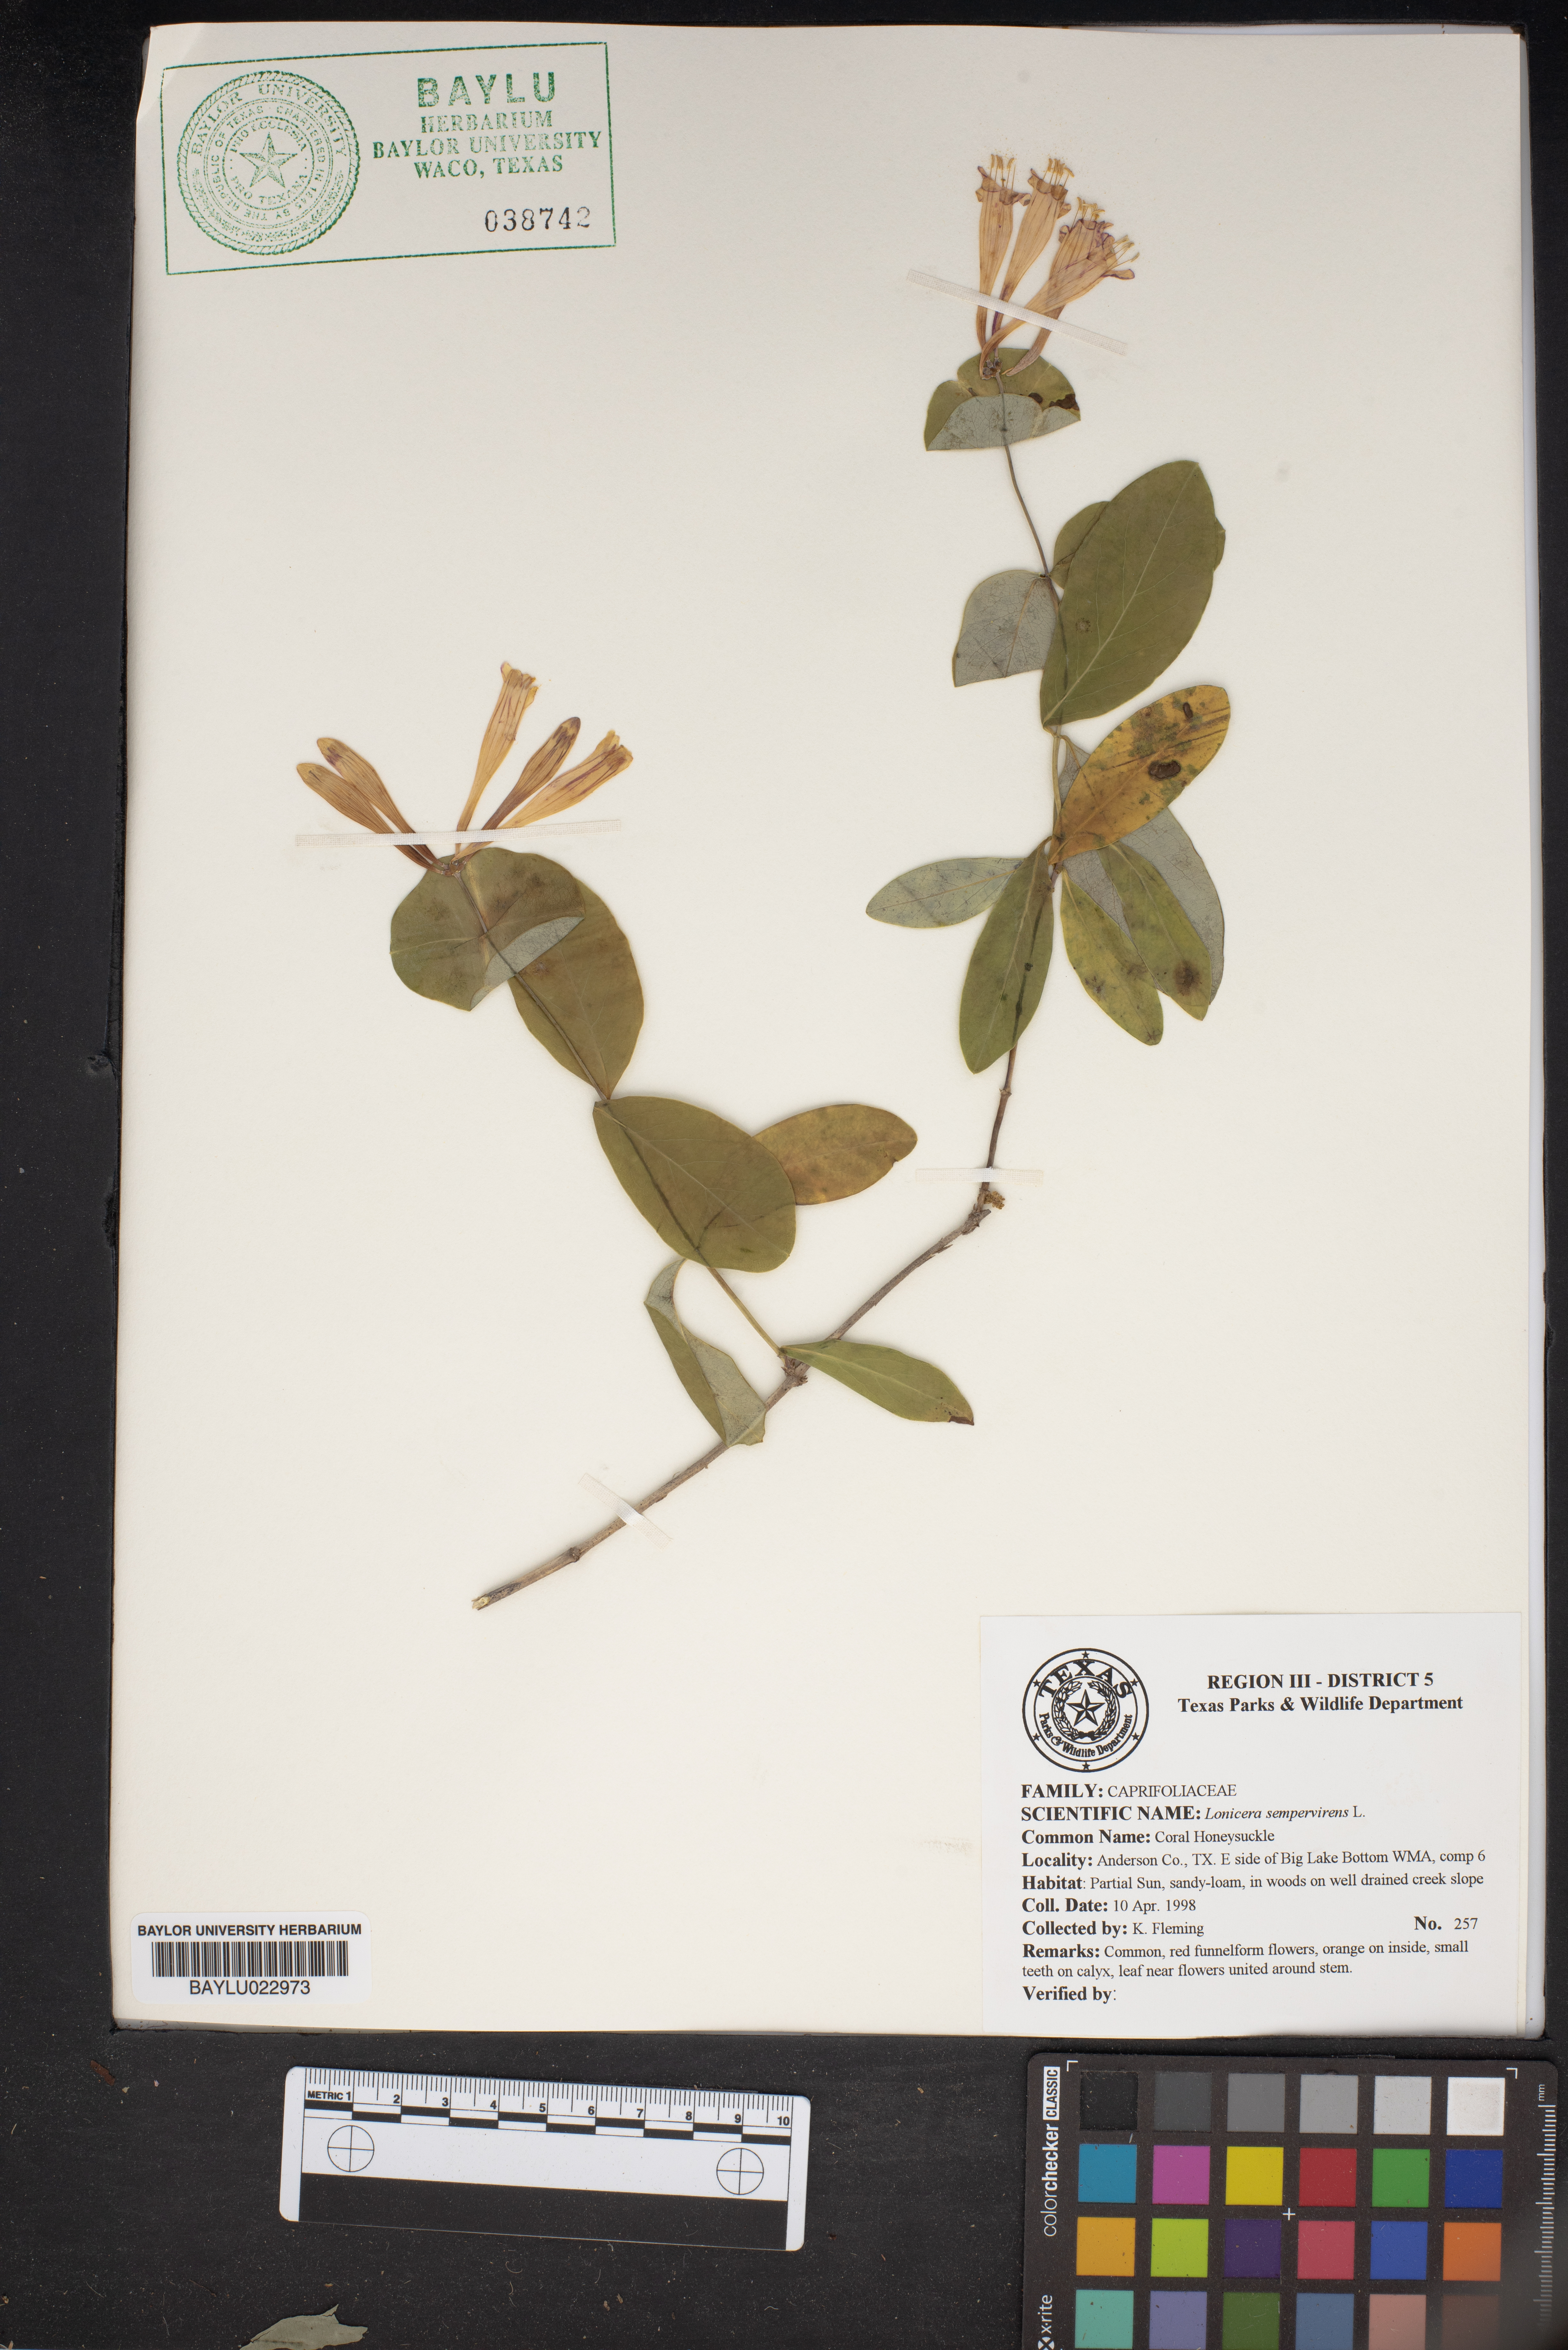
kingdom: Plantae
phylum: Tracheophyta
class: Magnoliopsida
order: Dipsacales
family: Caprifoliaceae
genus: Lonicera
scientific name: Lonicera sempervirens
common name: Coral honeysuckle
